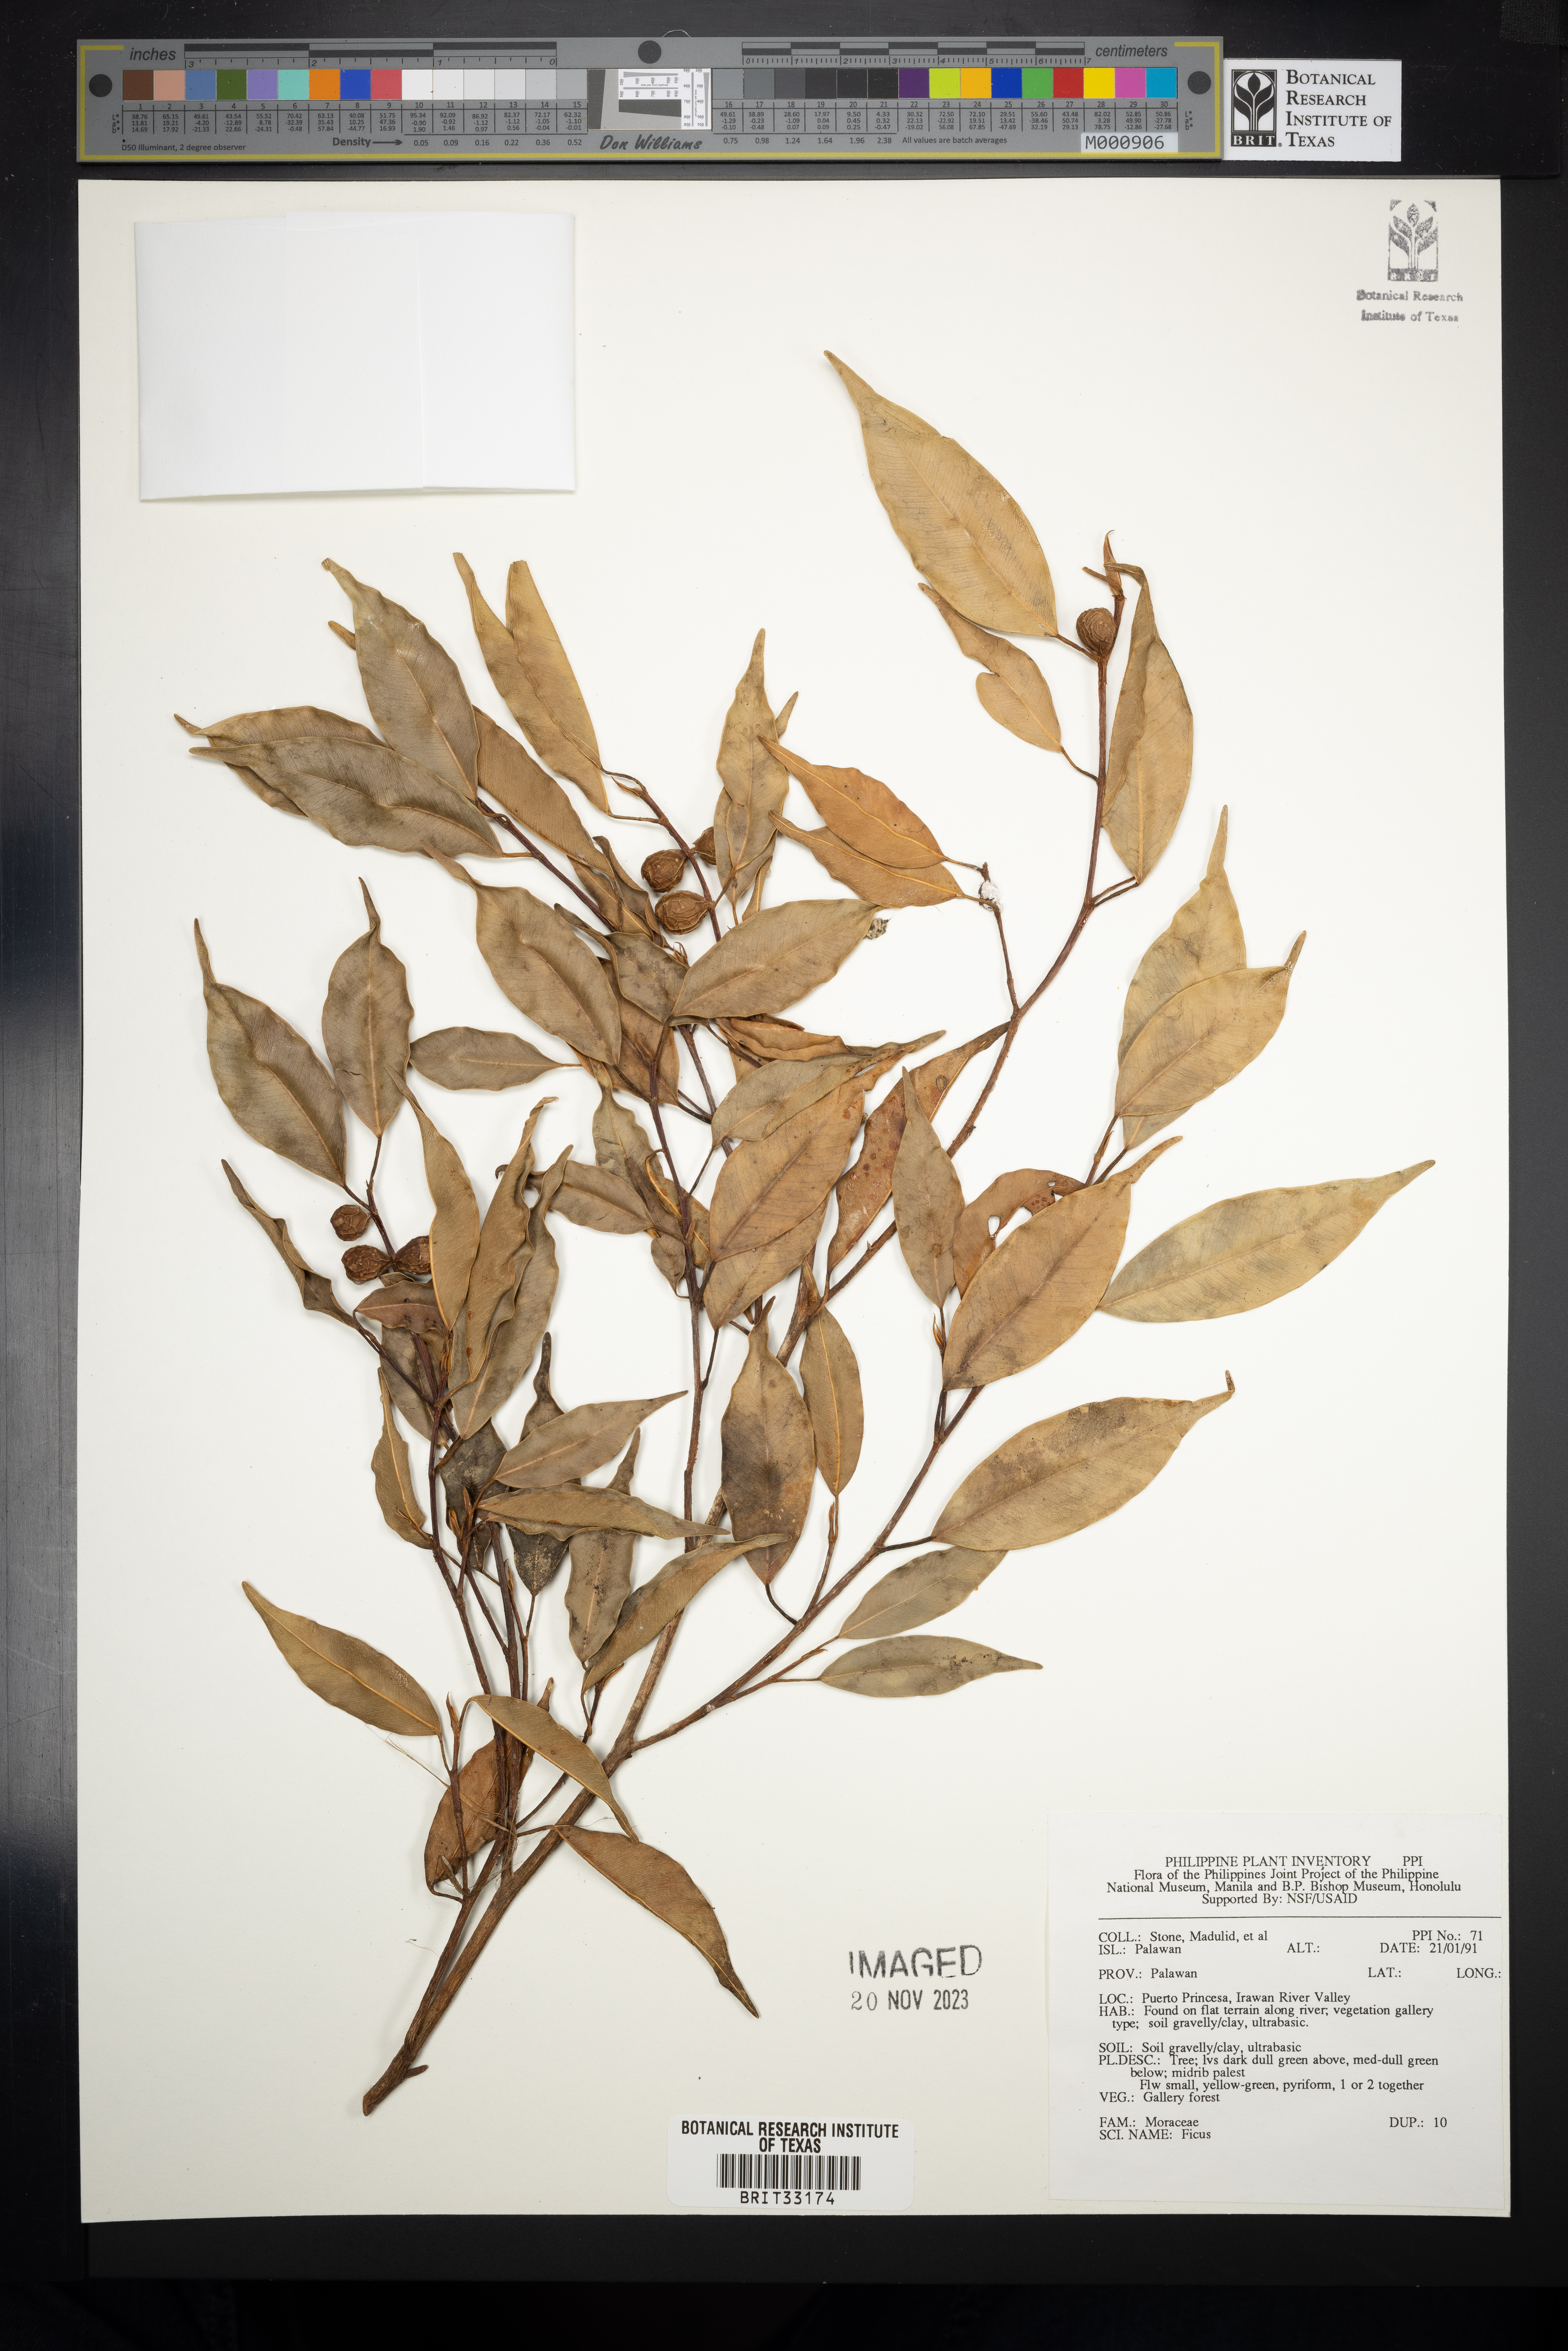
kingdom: Plantae
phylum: Tracheophyta
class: Magnoliopsida
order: Rosales
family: Moraceae
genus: Ficus
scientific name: Ficus
